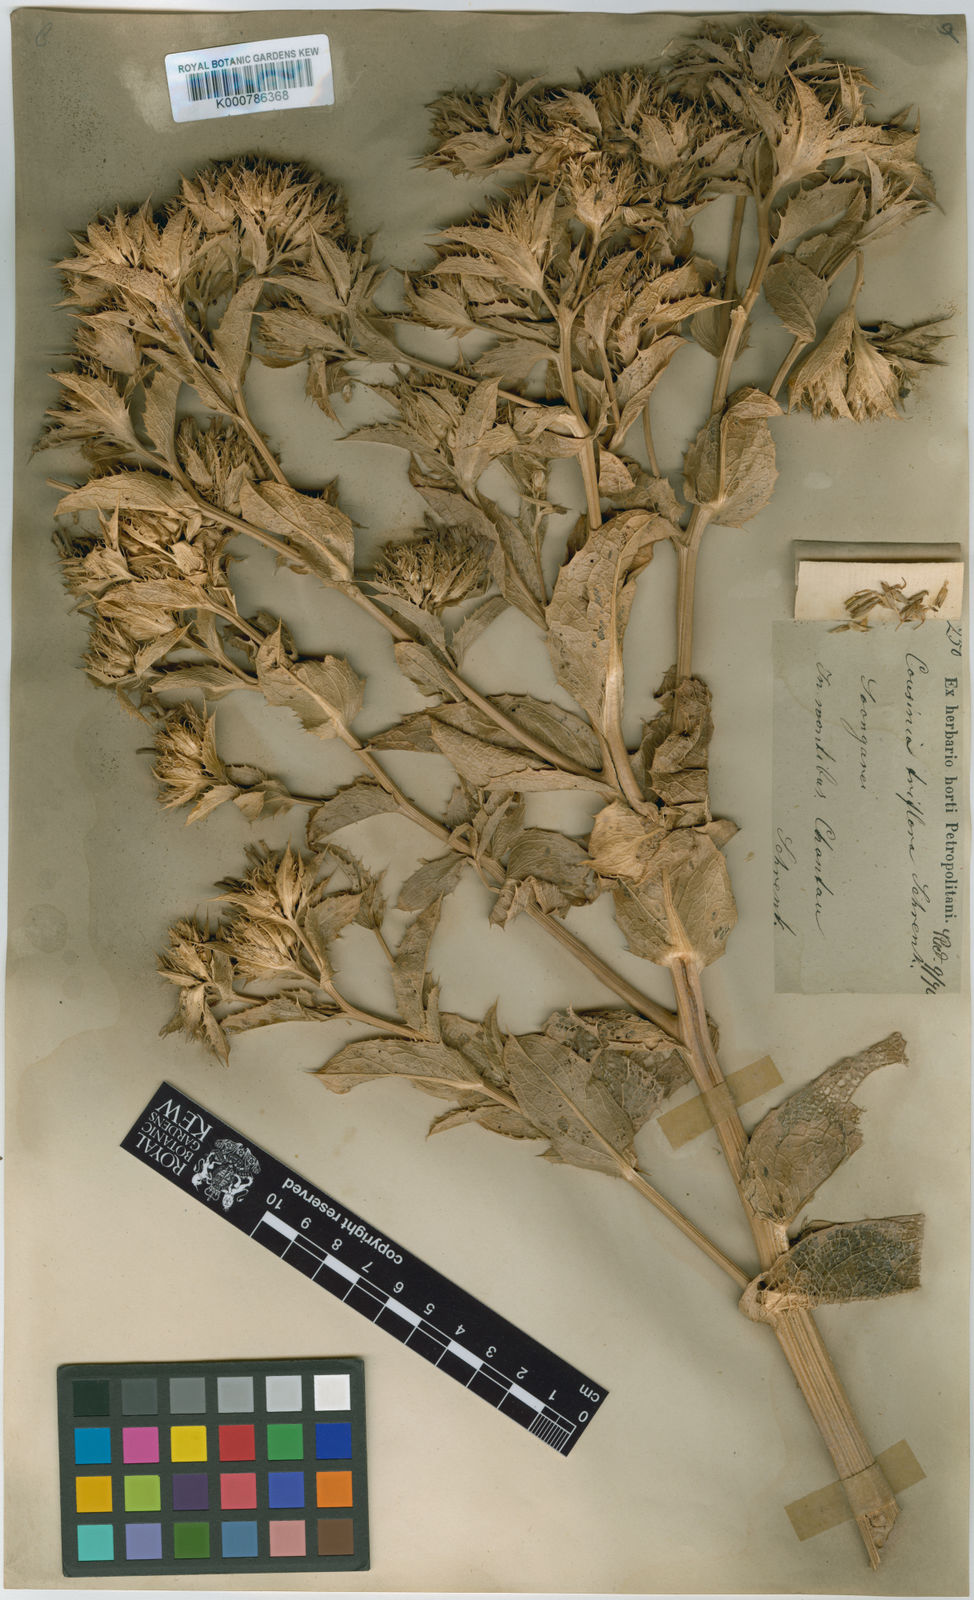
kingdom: Plantae
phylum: Tracheophyta
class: Magnoliopsida
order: Asterales
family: Asteraceae
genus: Arctium
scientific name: Arctium triflorum
